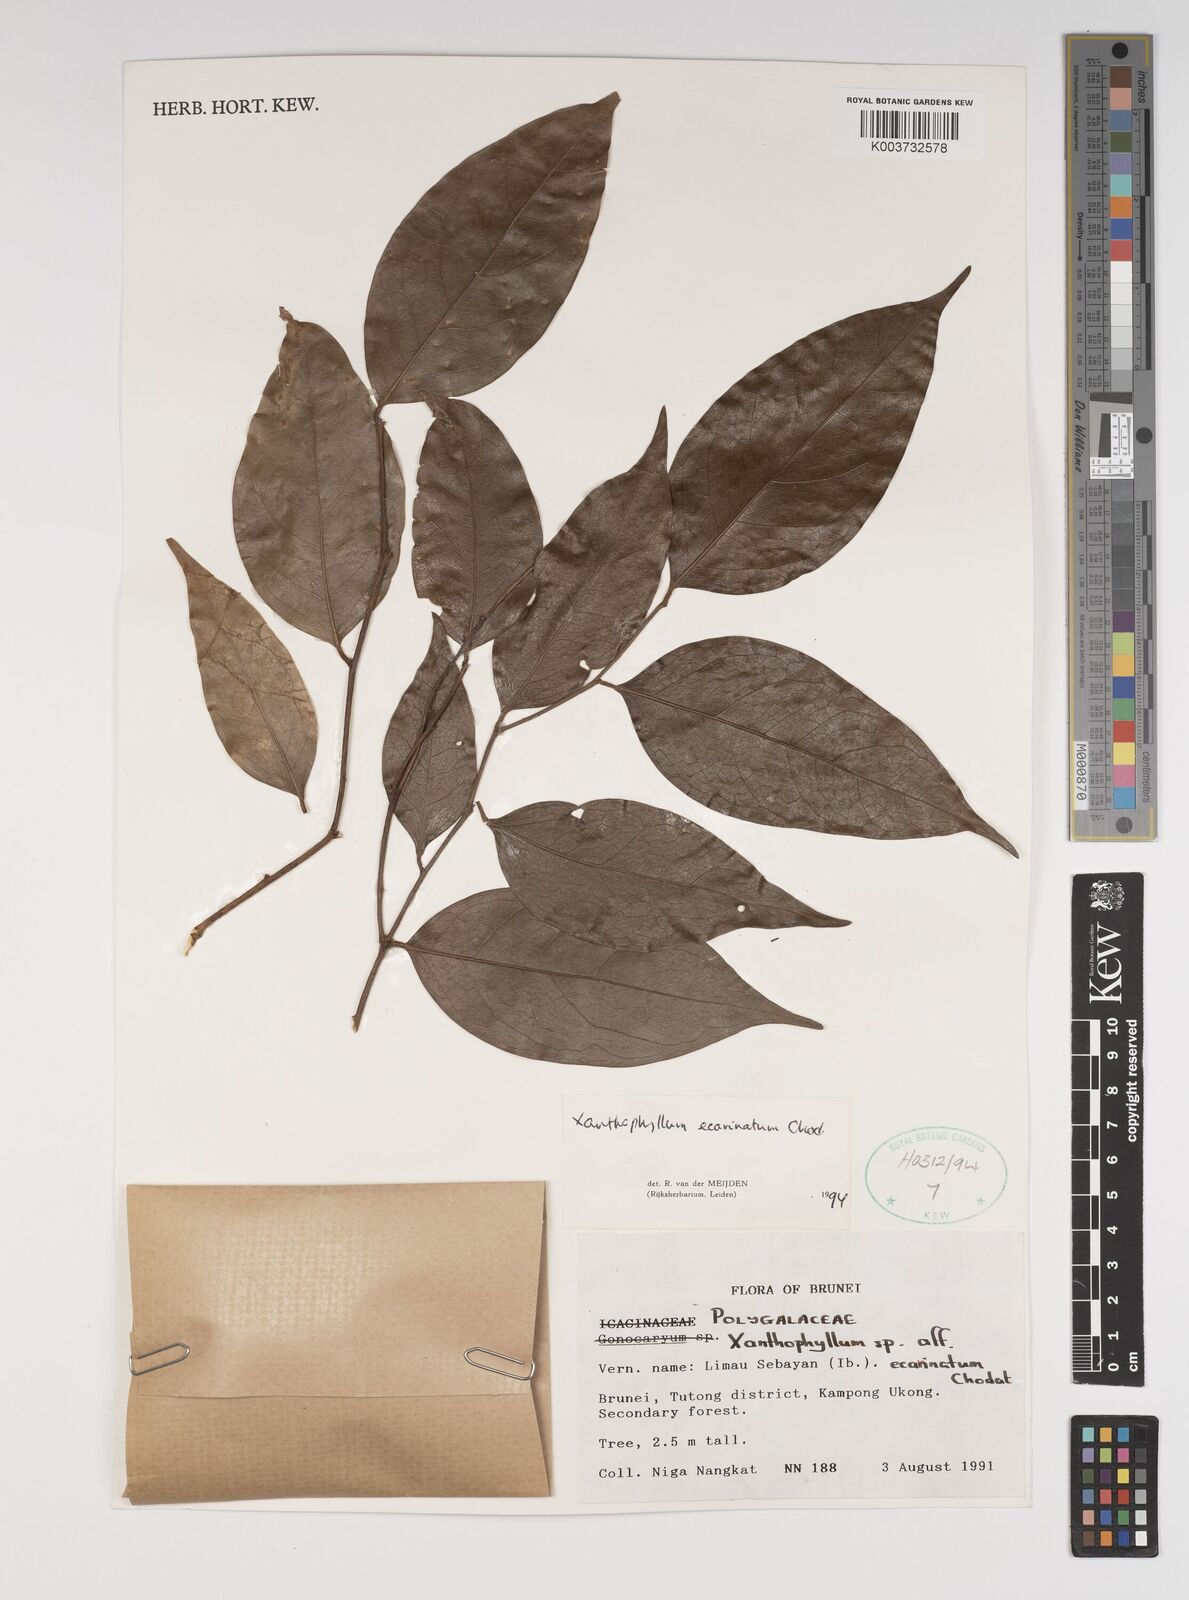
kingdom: Plantae
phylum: Tracheophyta
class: Magnoliopsida
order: Fabales
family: Polygalaceae
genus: Xanthophyllum
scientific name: Xanthophyllum ecarinatum
